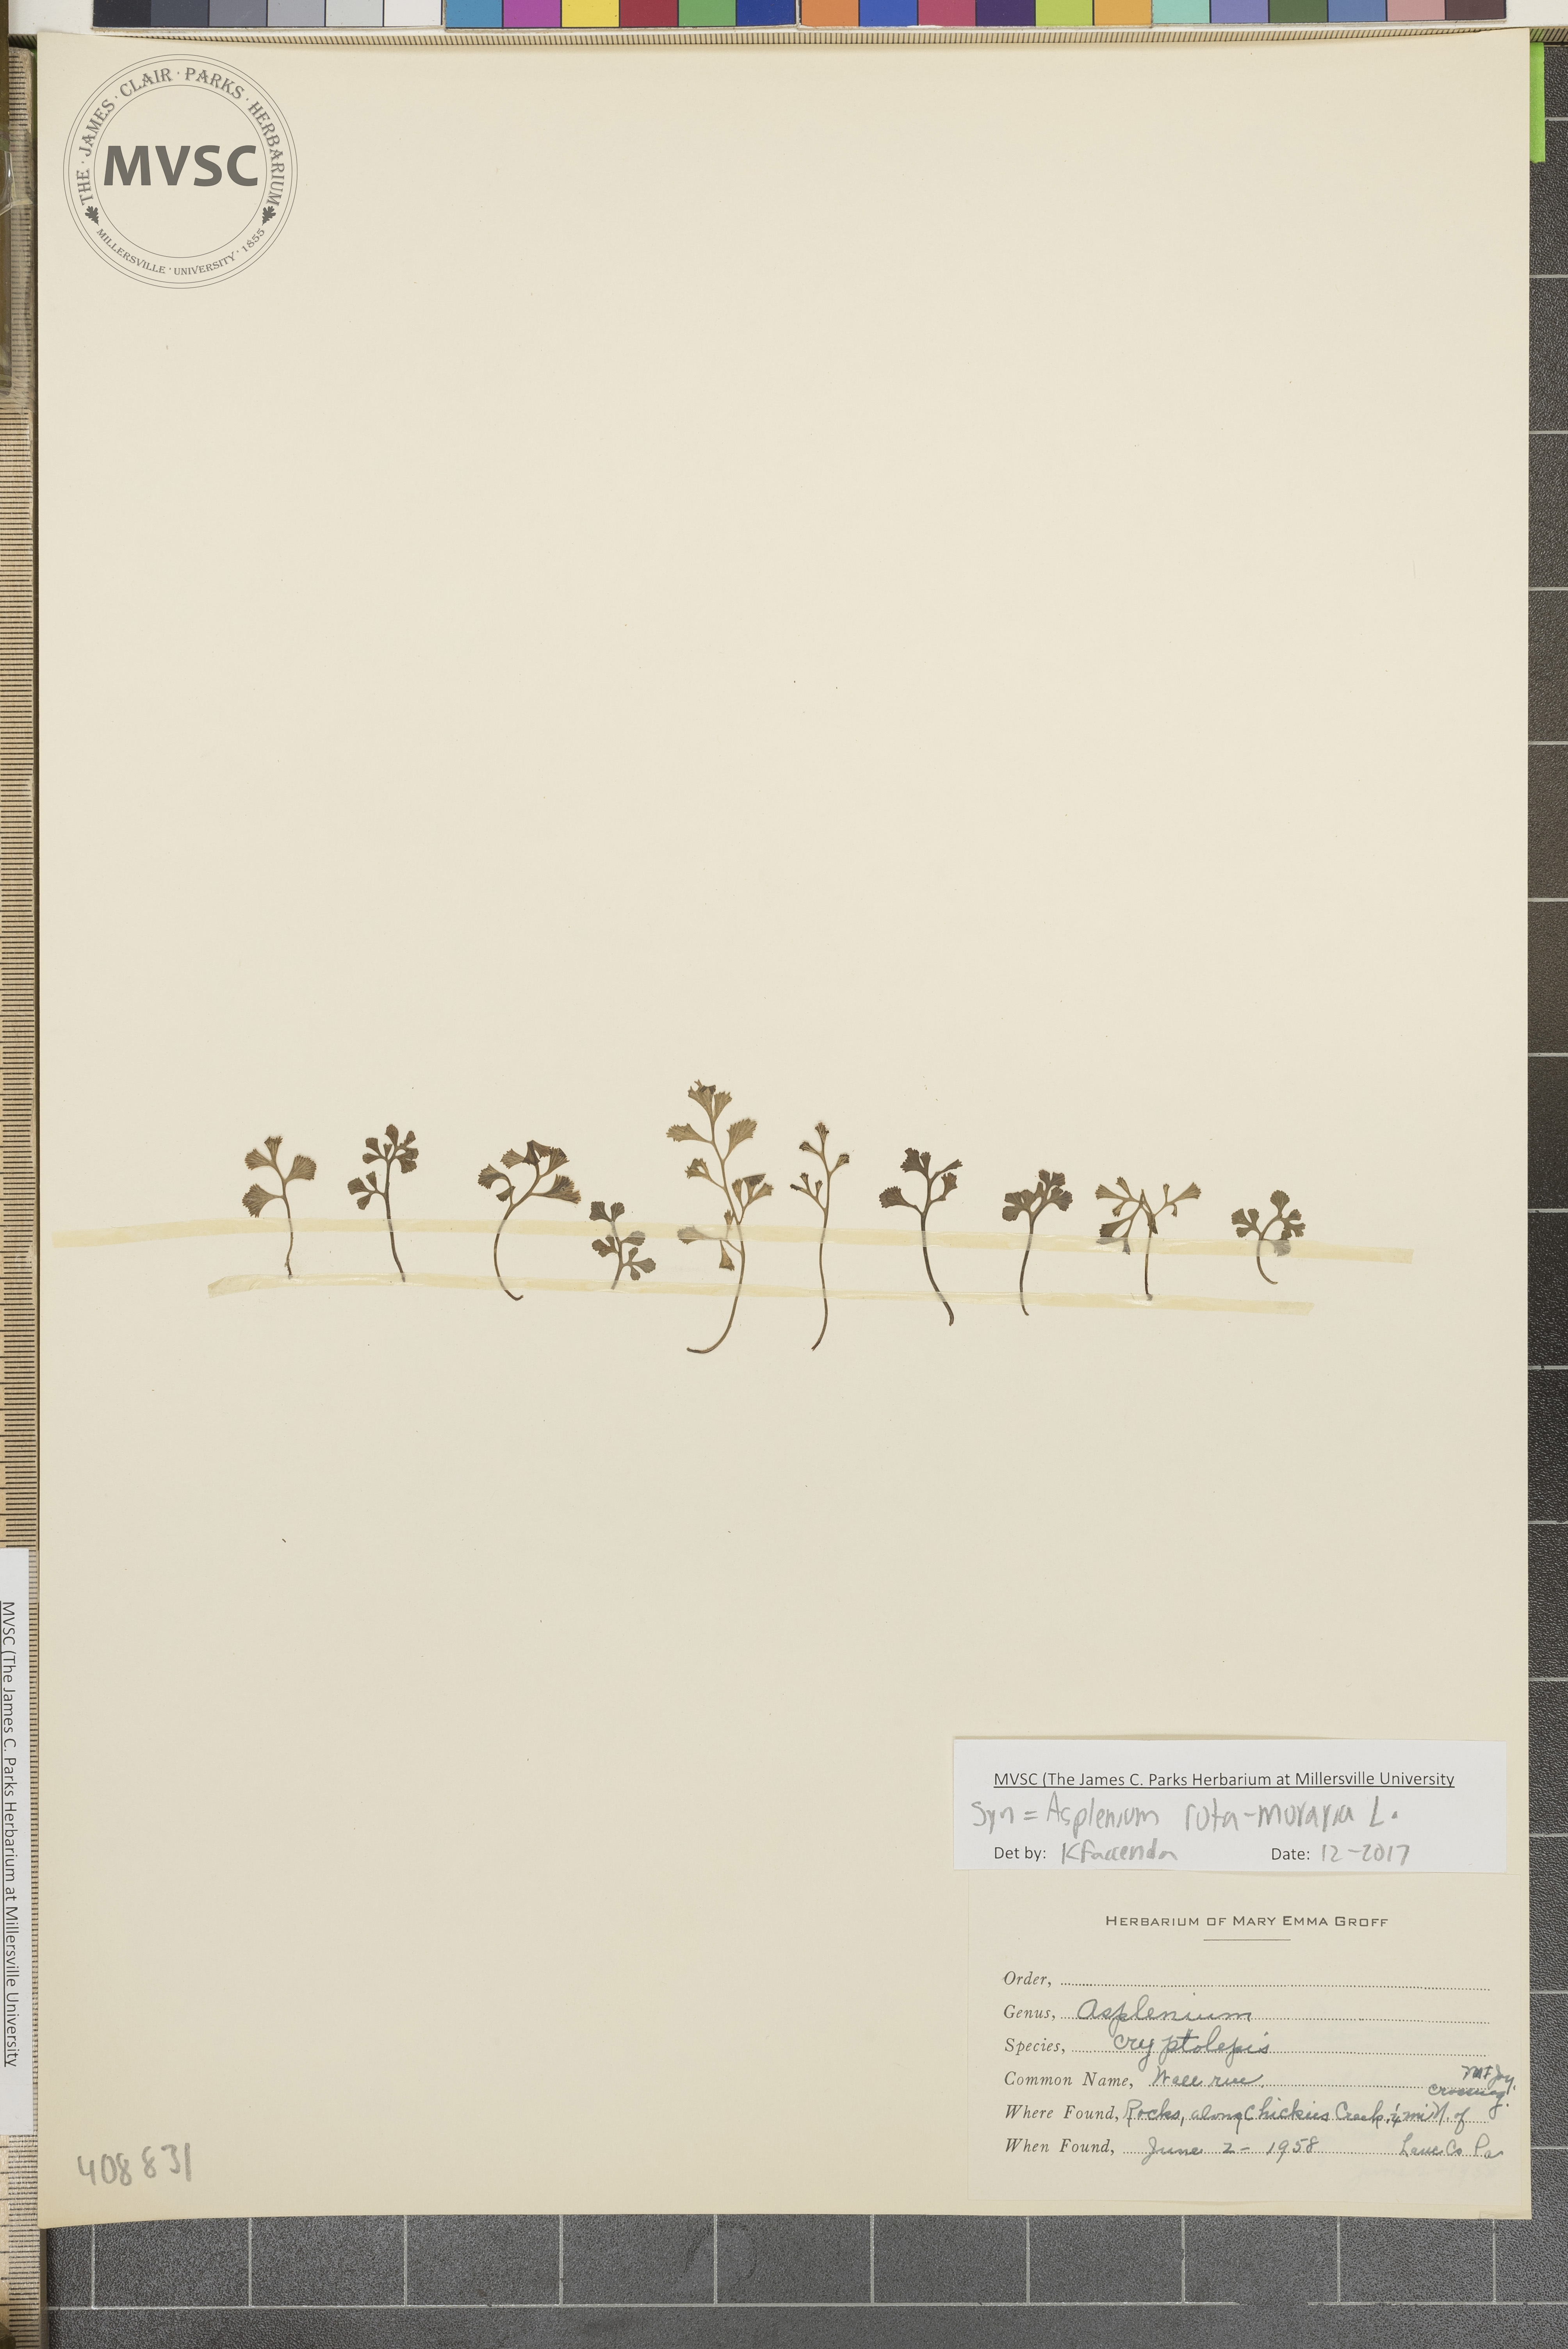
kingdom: Plantae
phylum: Tracheophyta
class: Polypodiopsida
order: Polypodiales
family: Aspleniaceae
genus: Asplenium
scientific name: Asplenium ruta-muraria
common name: Wall-rue
